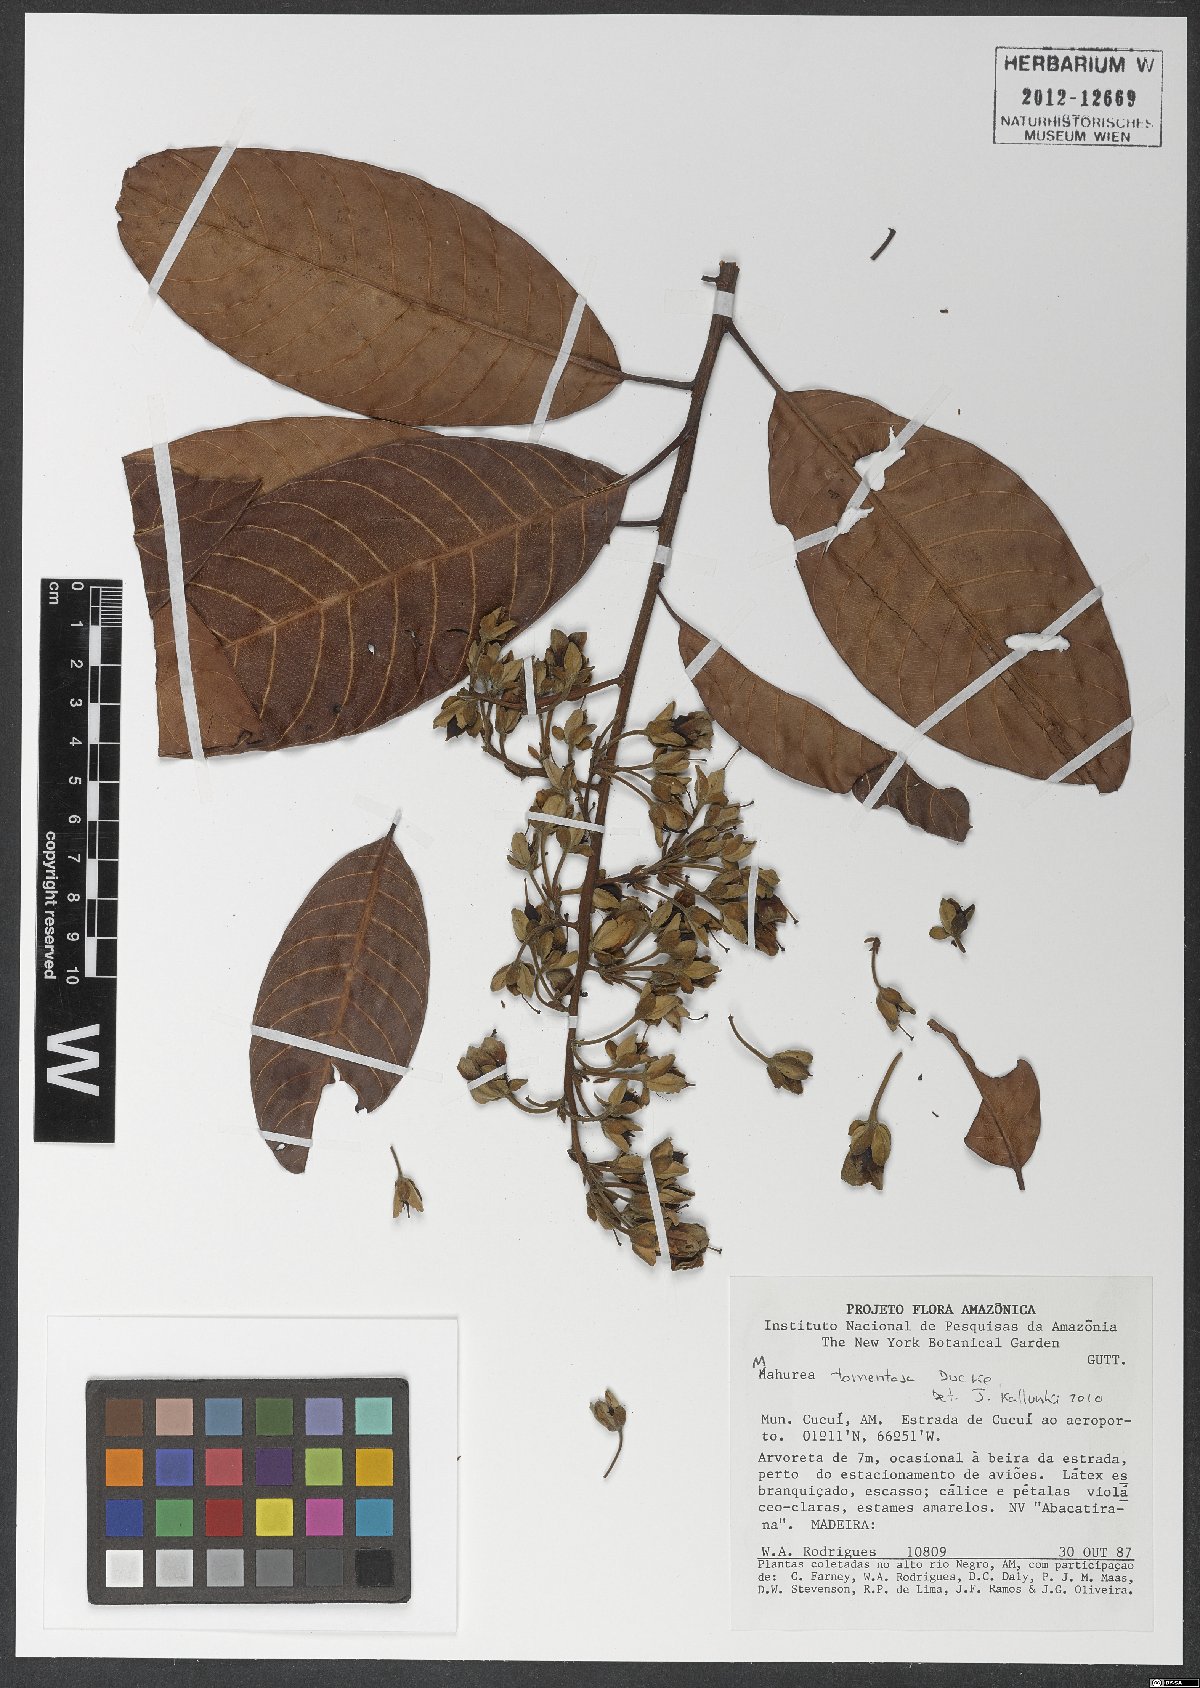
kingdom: Plantae
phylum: Tracheophyta
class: Magnoliopsida
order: Malpighiales
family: Calophyllaceae
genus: Mahurea
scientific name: Mahurea exstipulata
